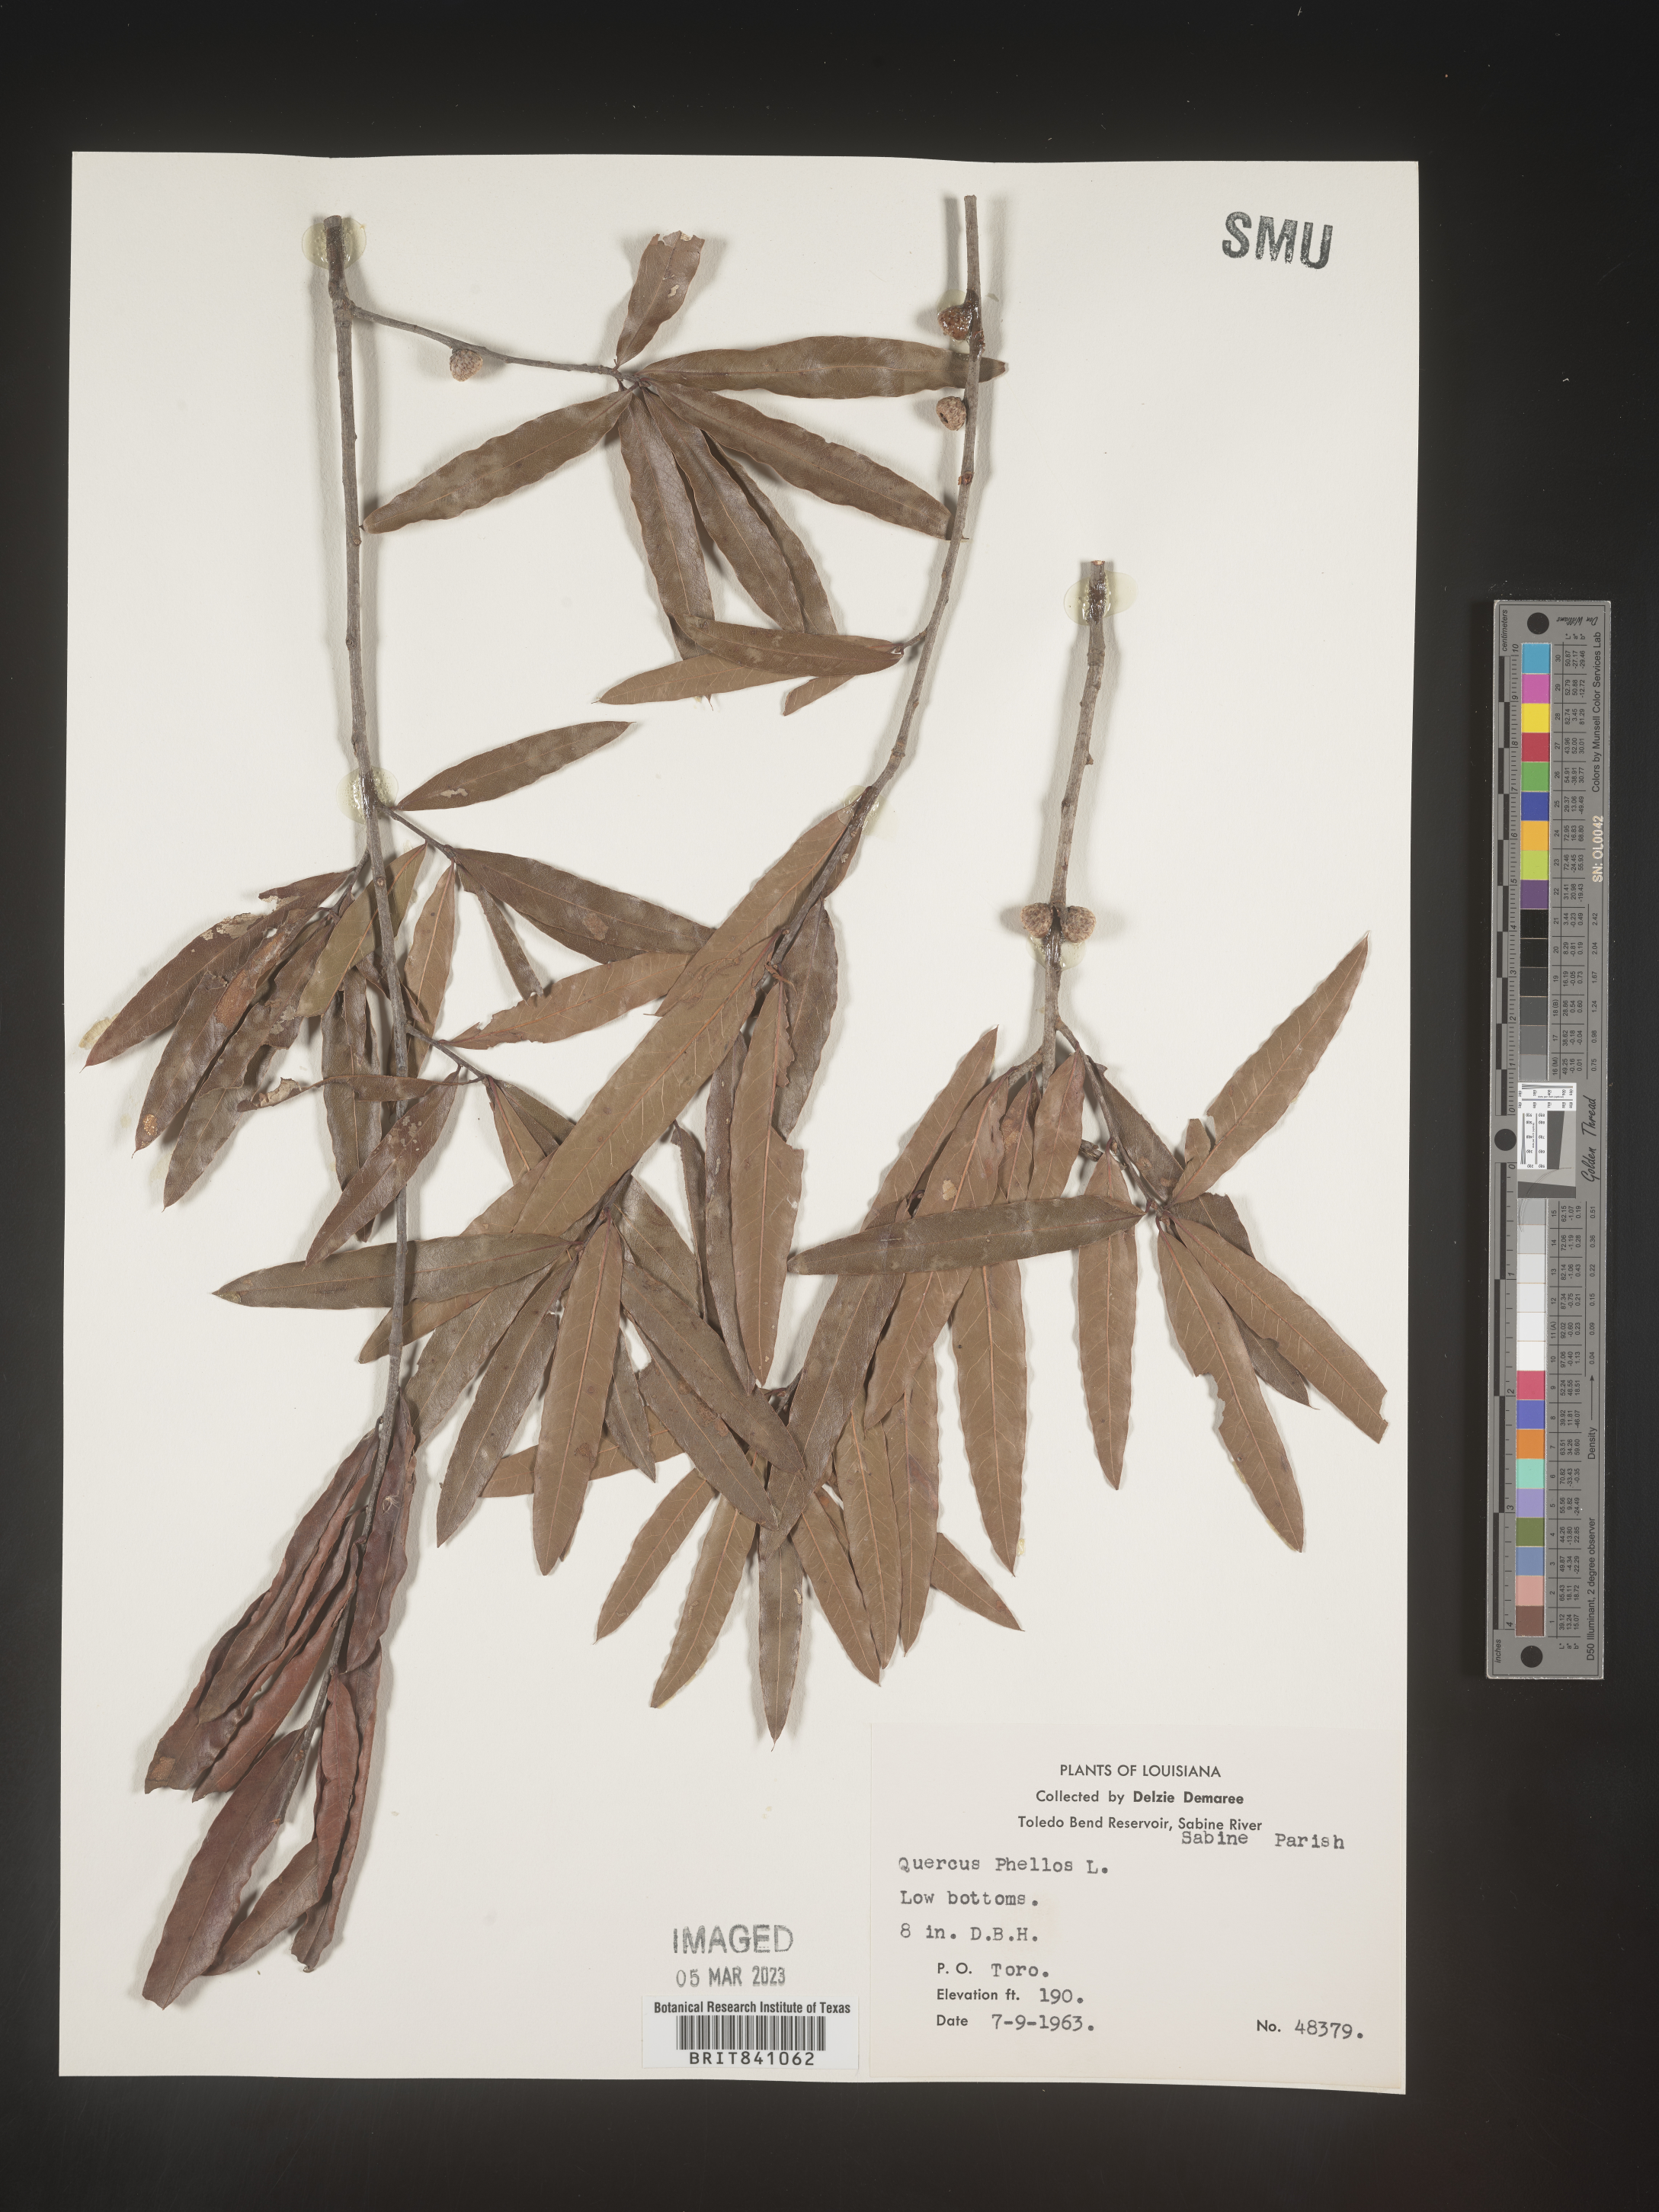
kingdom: Plantae
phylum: Tracheophyta
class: Magnoliopsida
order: Fagales
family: Fagaceae
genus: Quercus
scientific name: Quercus phellos
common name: Willow oak
